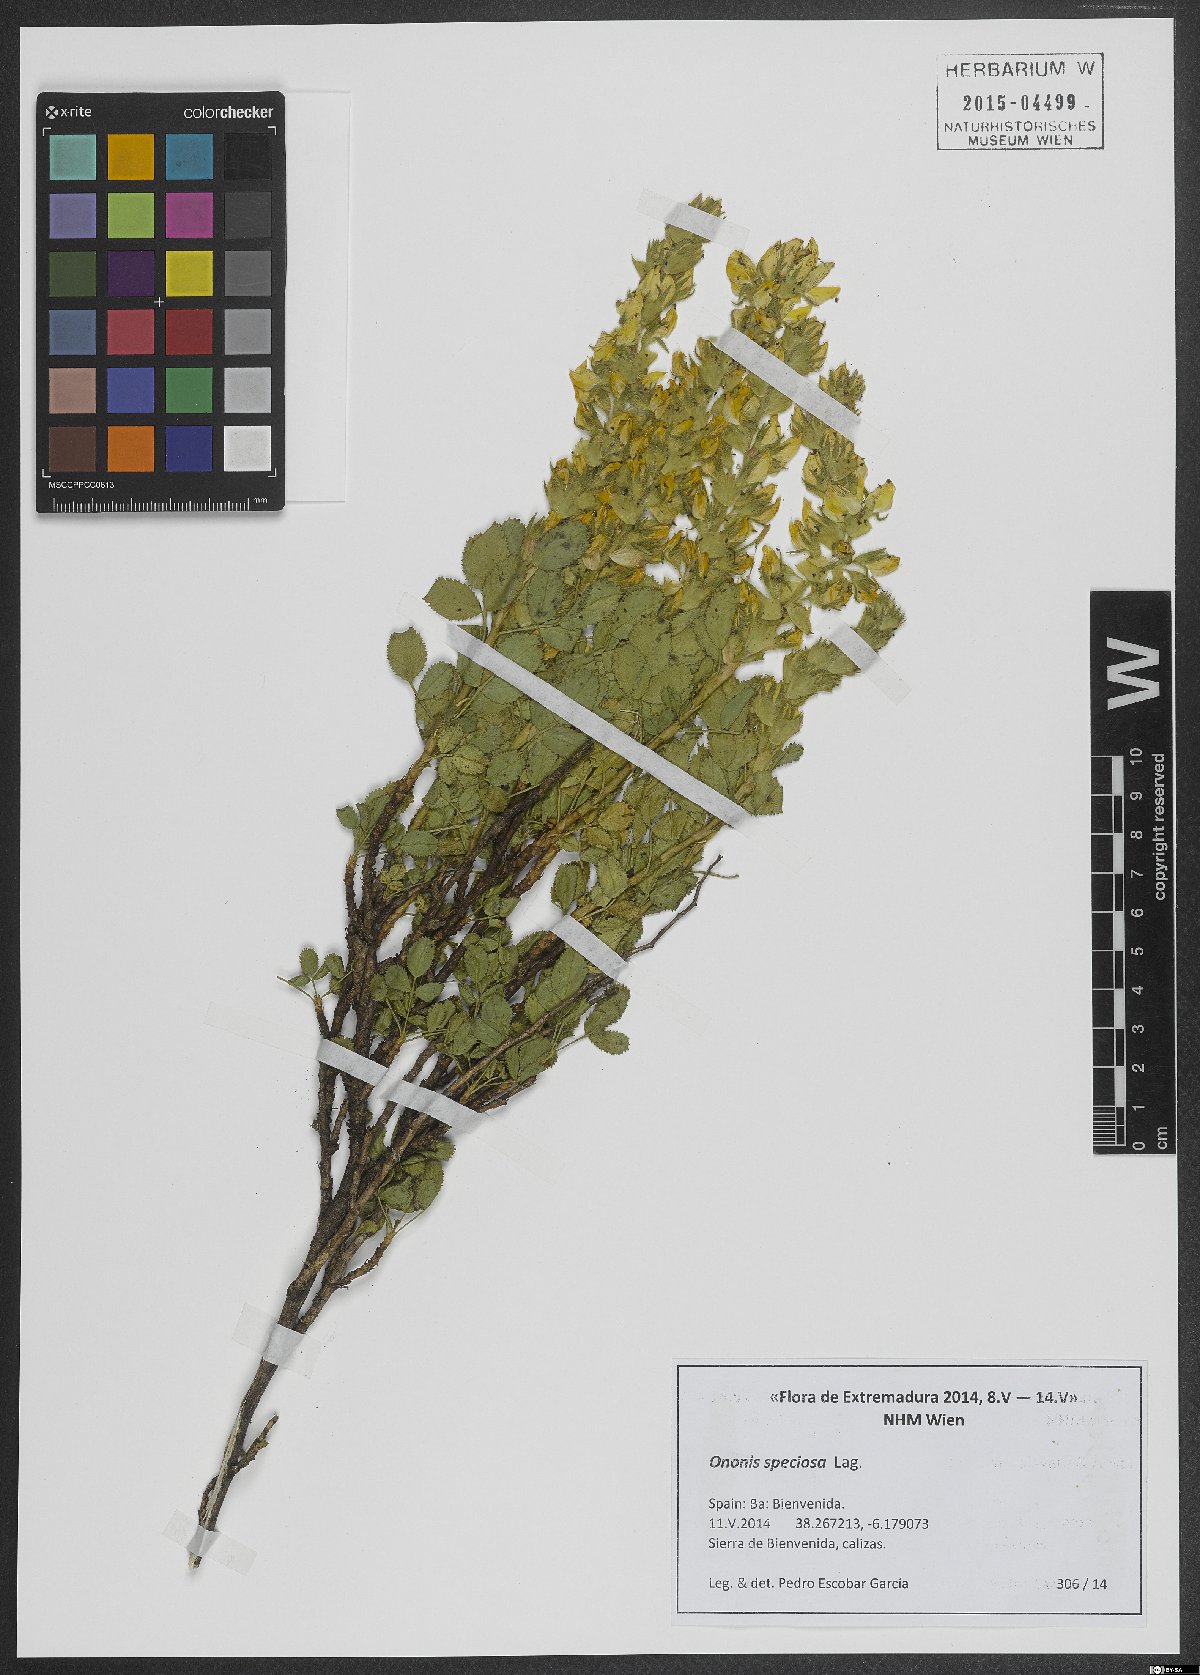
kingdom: Plantae
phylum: Tracheophyta
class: Magnoliopsida
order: Fabales
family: Fabaceae
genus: Ononis
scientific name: Ononis speciosa
